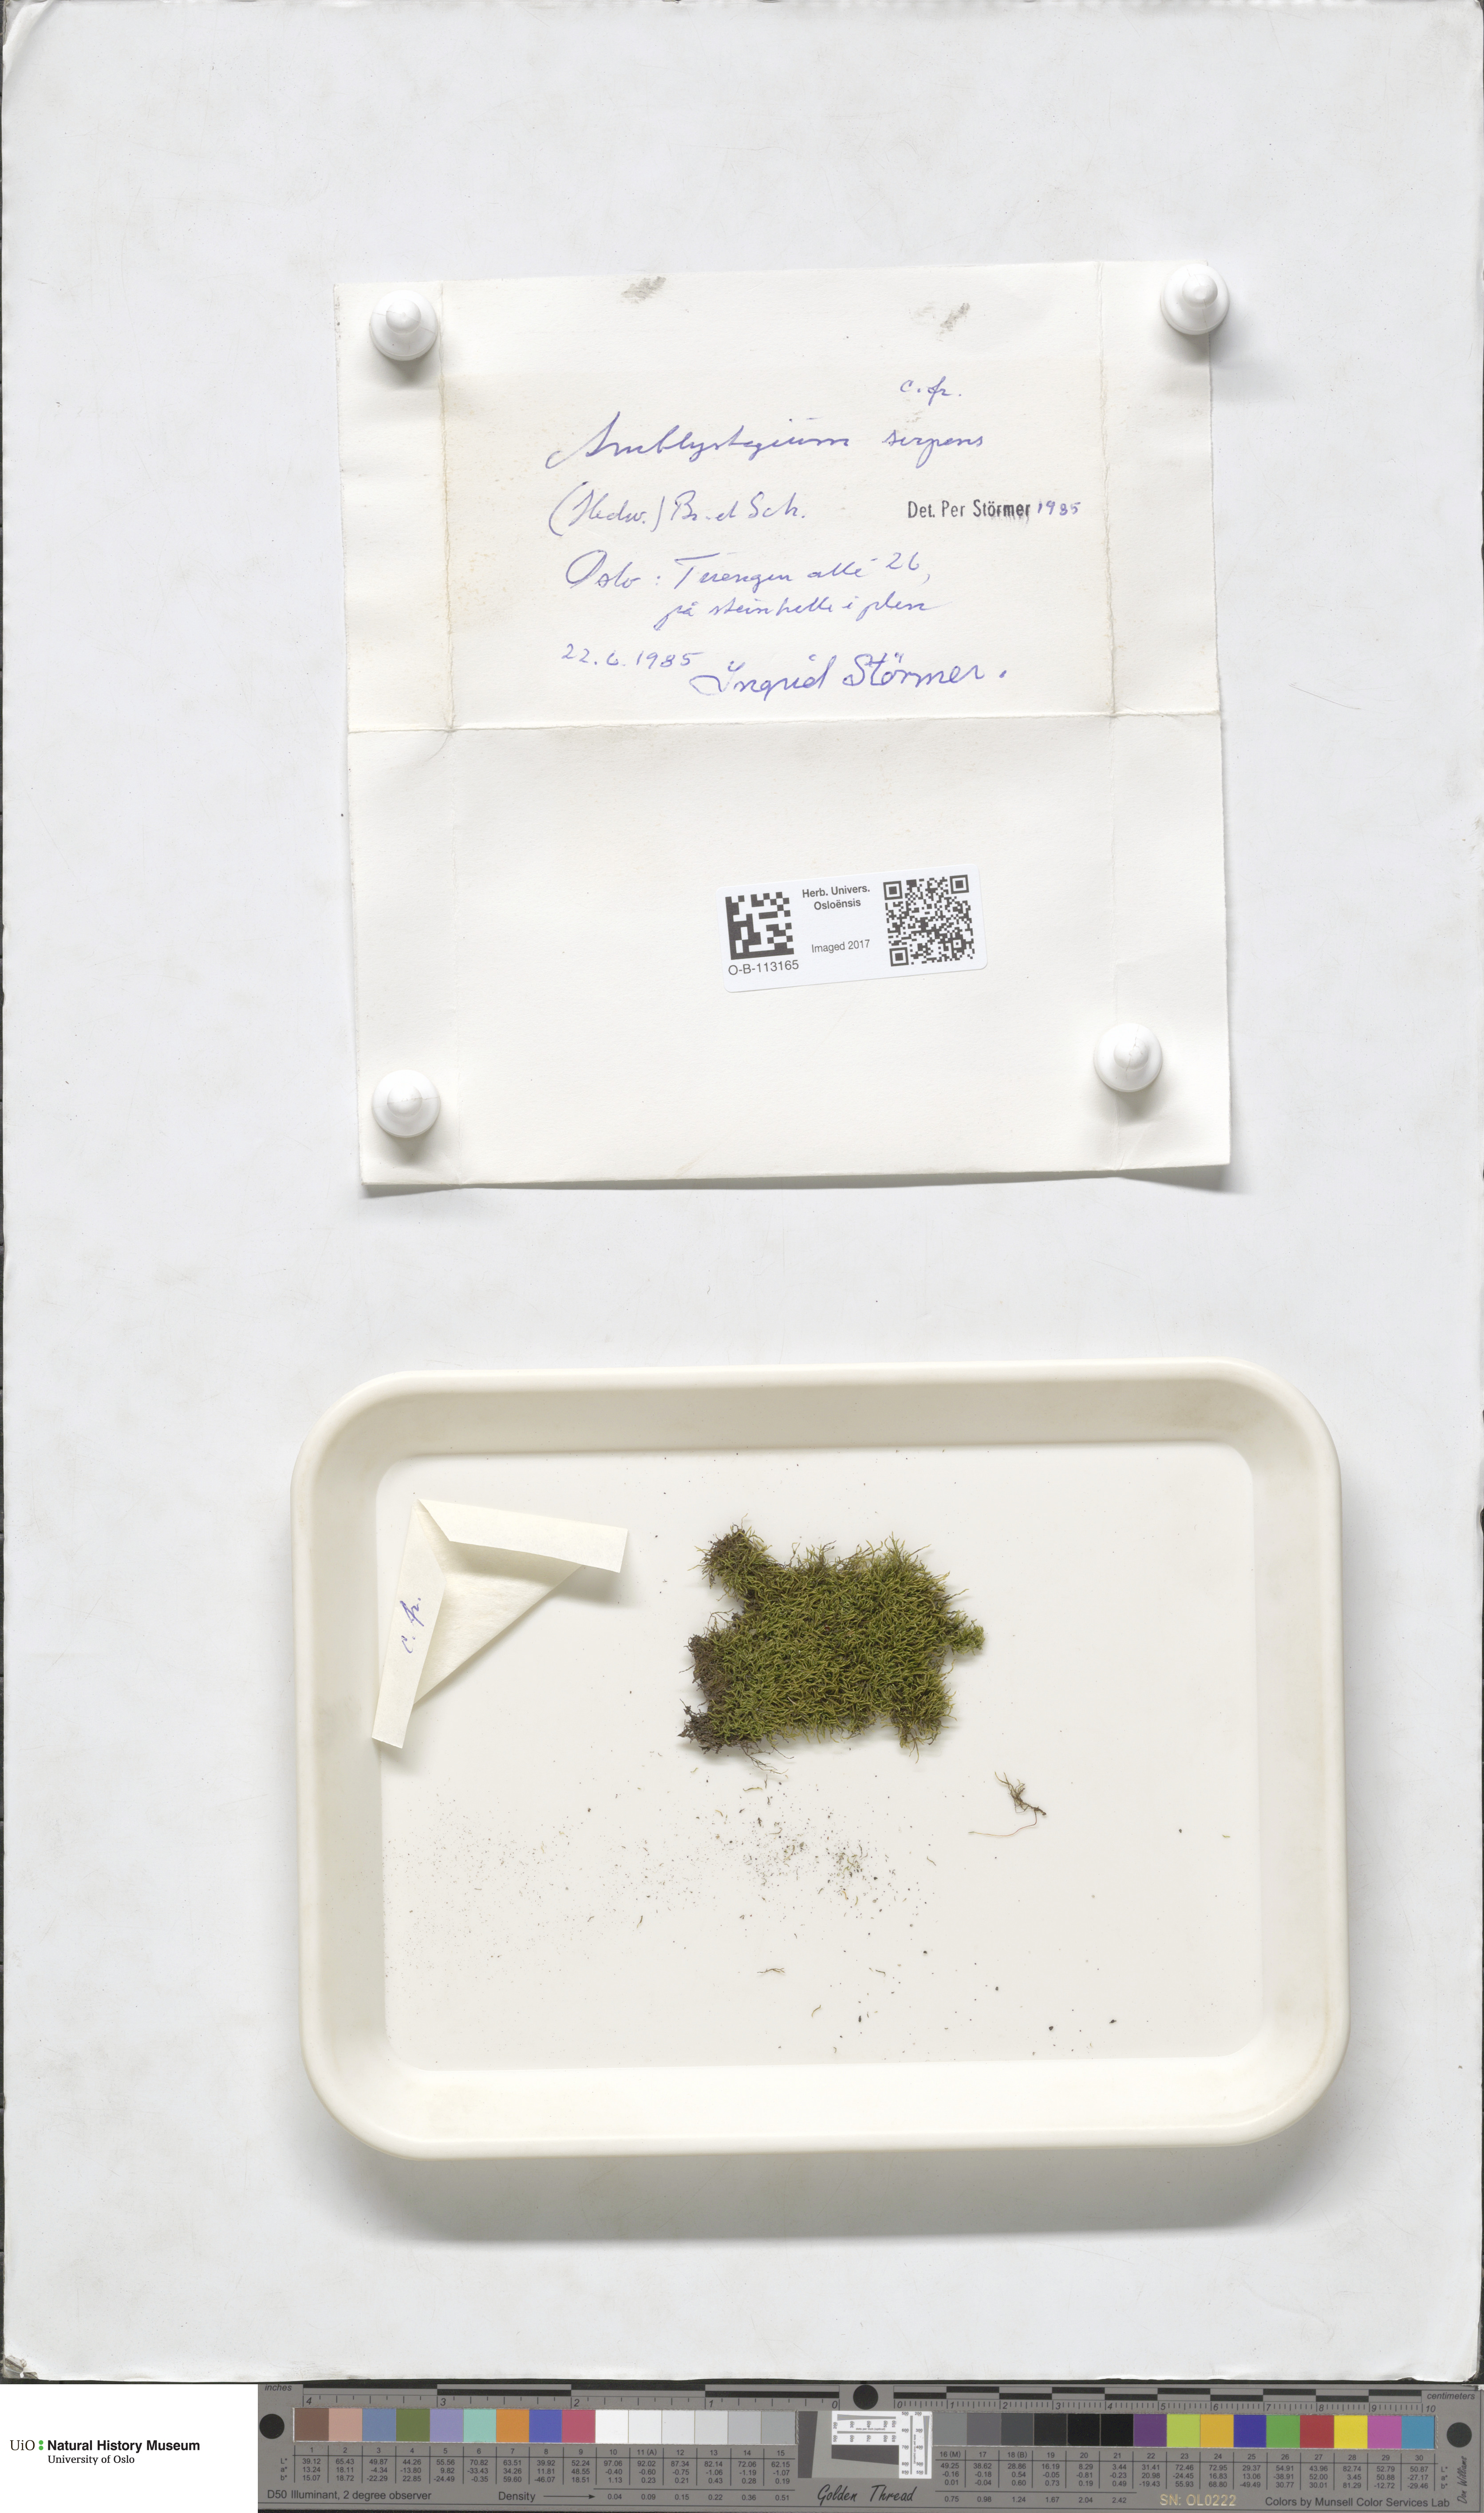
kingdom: Plantae
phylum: Bryophyta
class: Bryopsida
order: Hypnales
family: Amblystegiaceae
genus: Amblystegium
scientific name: Amblystegium serpens
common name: Jurkatzka's feather moss
